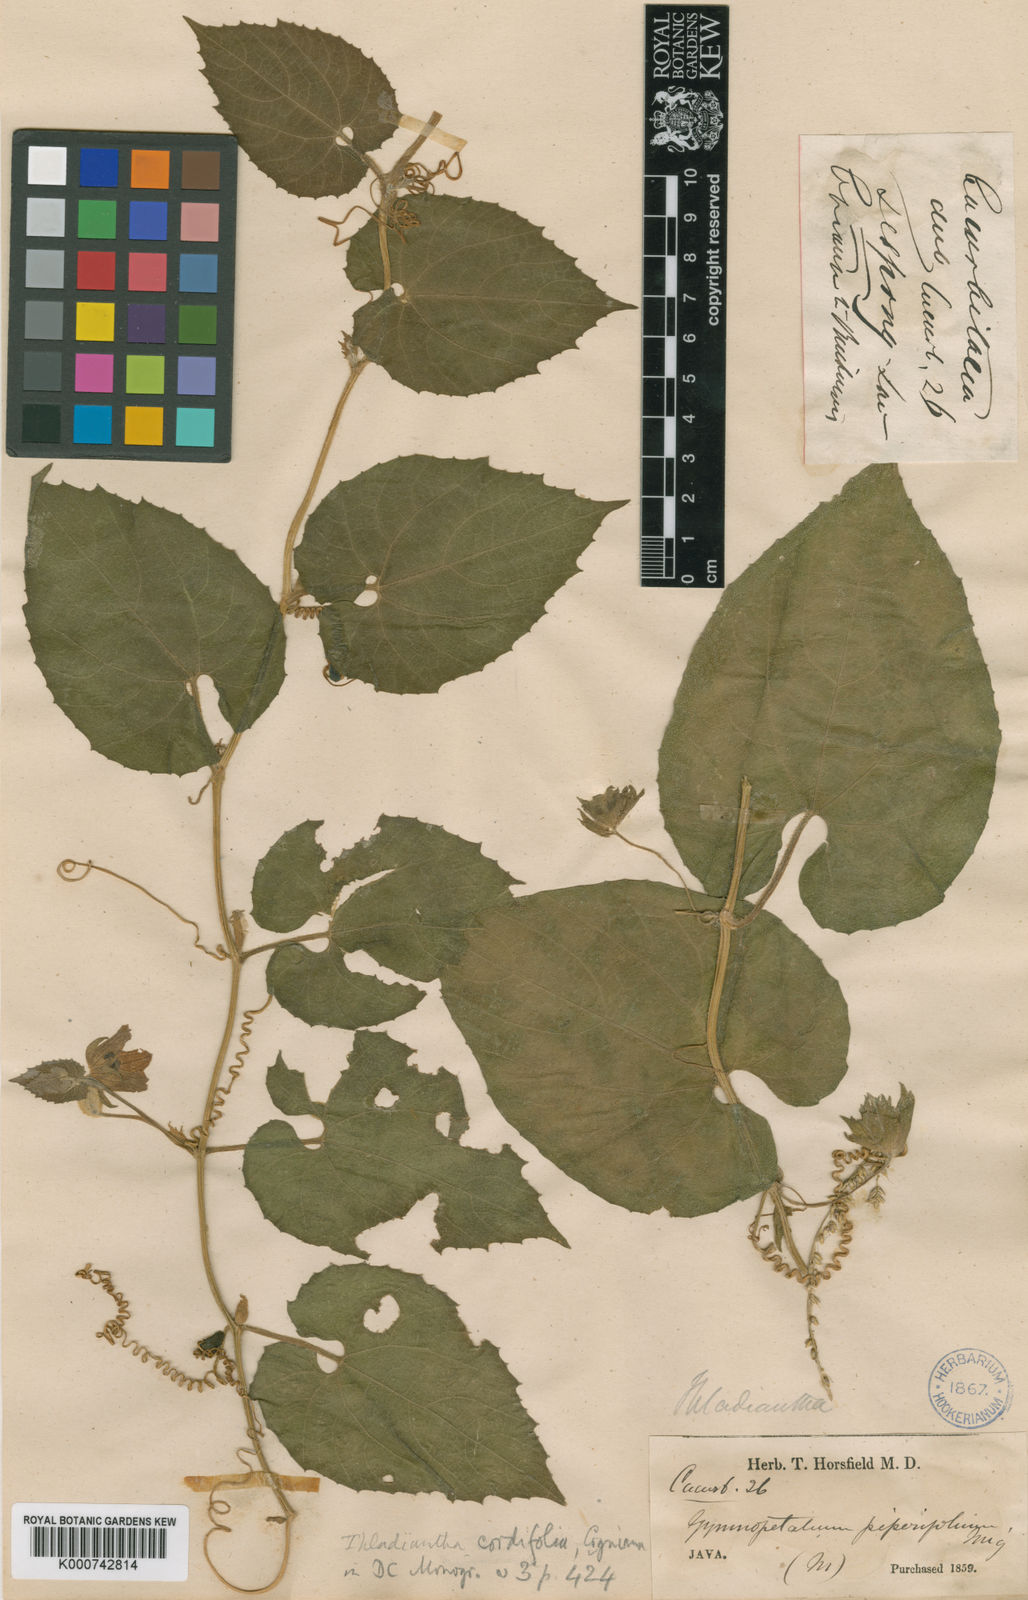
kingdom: Plantae
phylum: Tracheophyta
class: Magnoliopsida
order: Cucurbitales
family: Cucurbitaceae
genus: Thladiantha
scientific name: Thladiantha cordifolia
